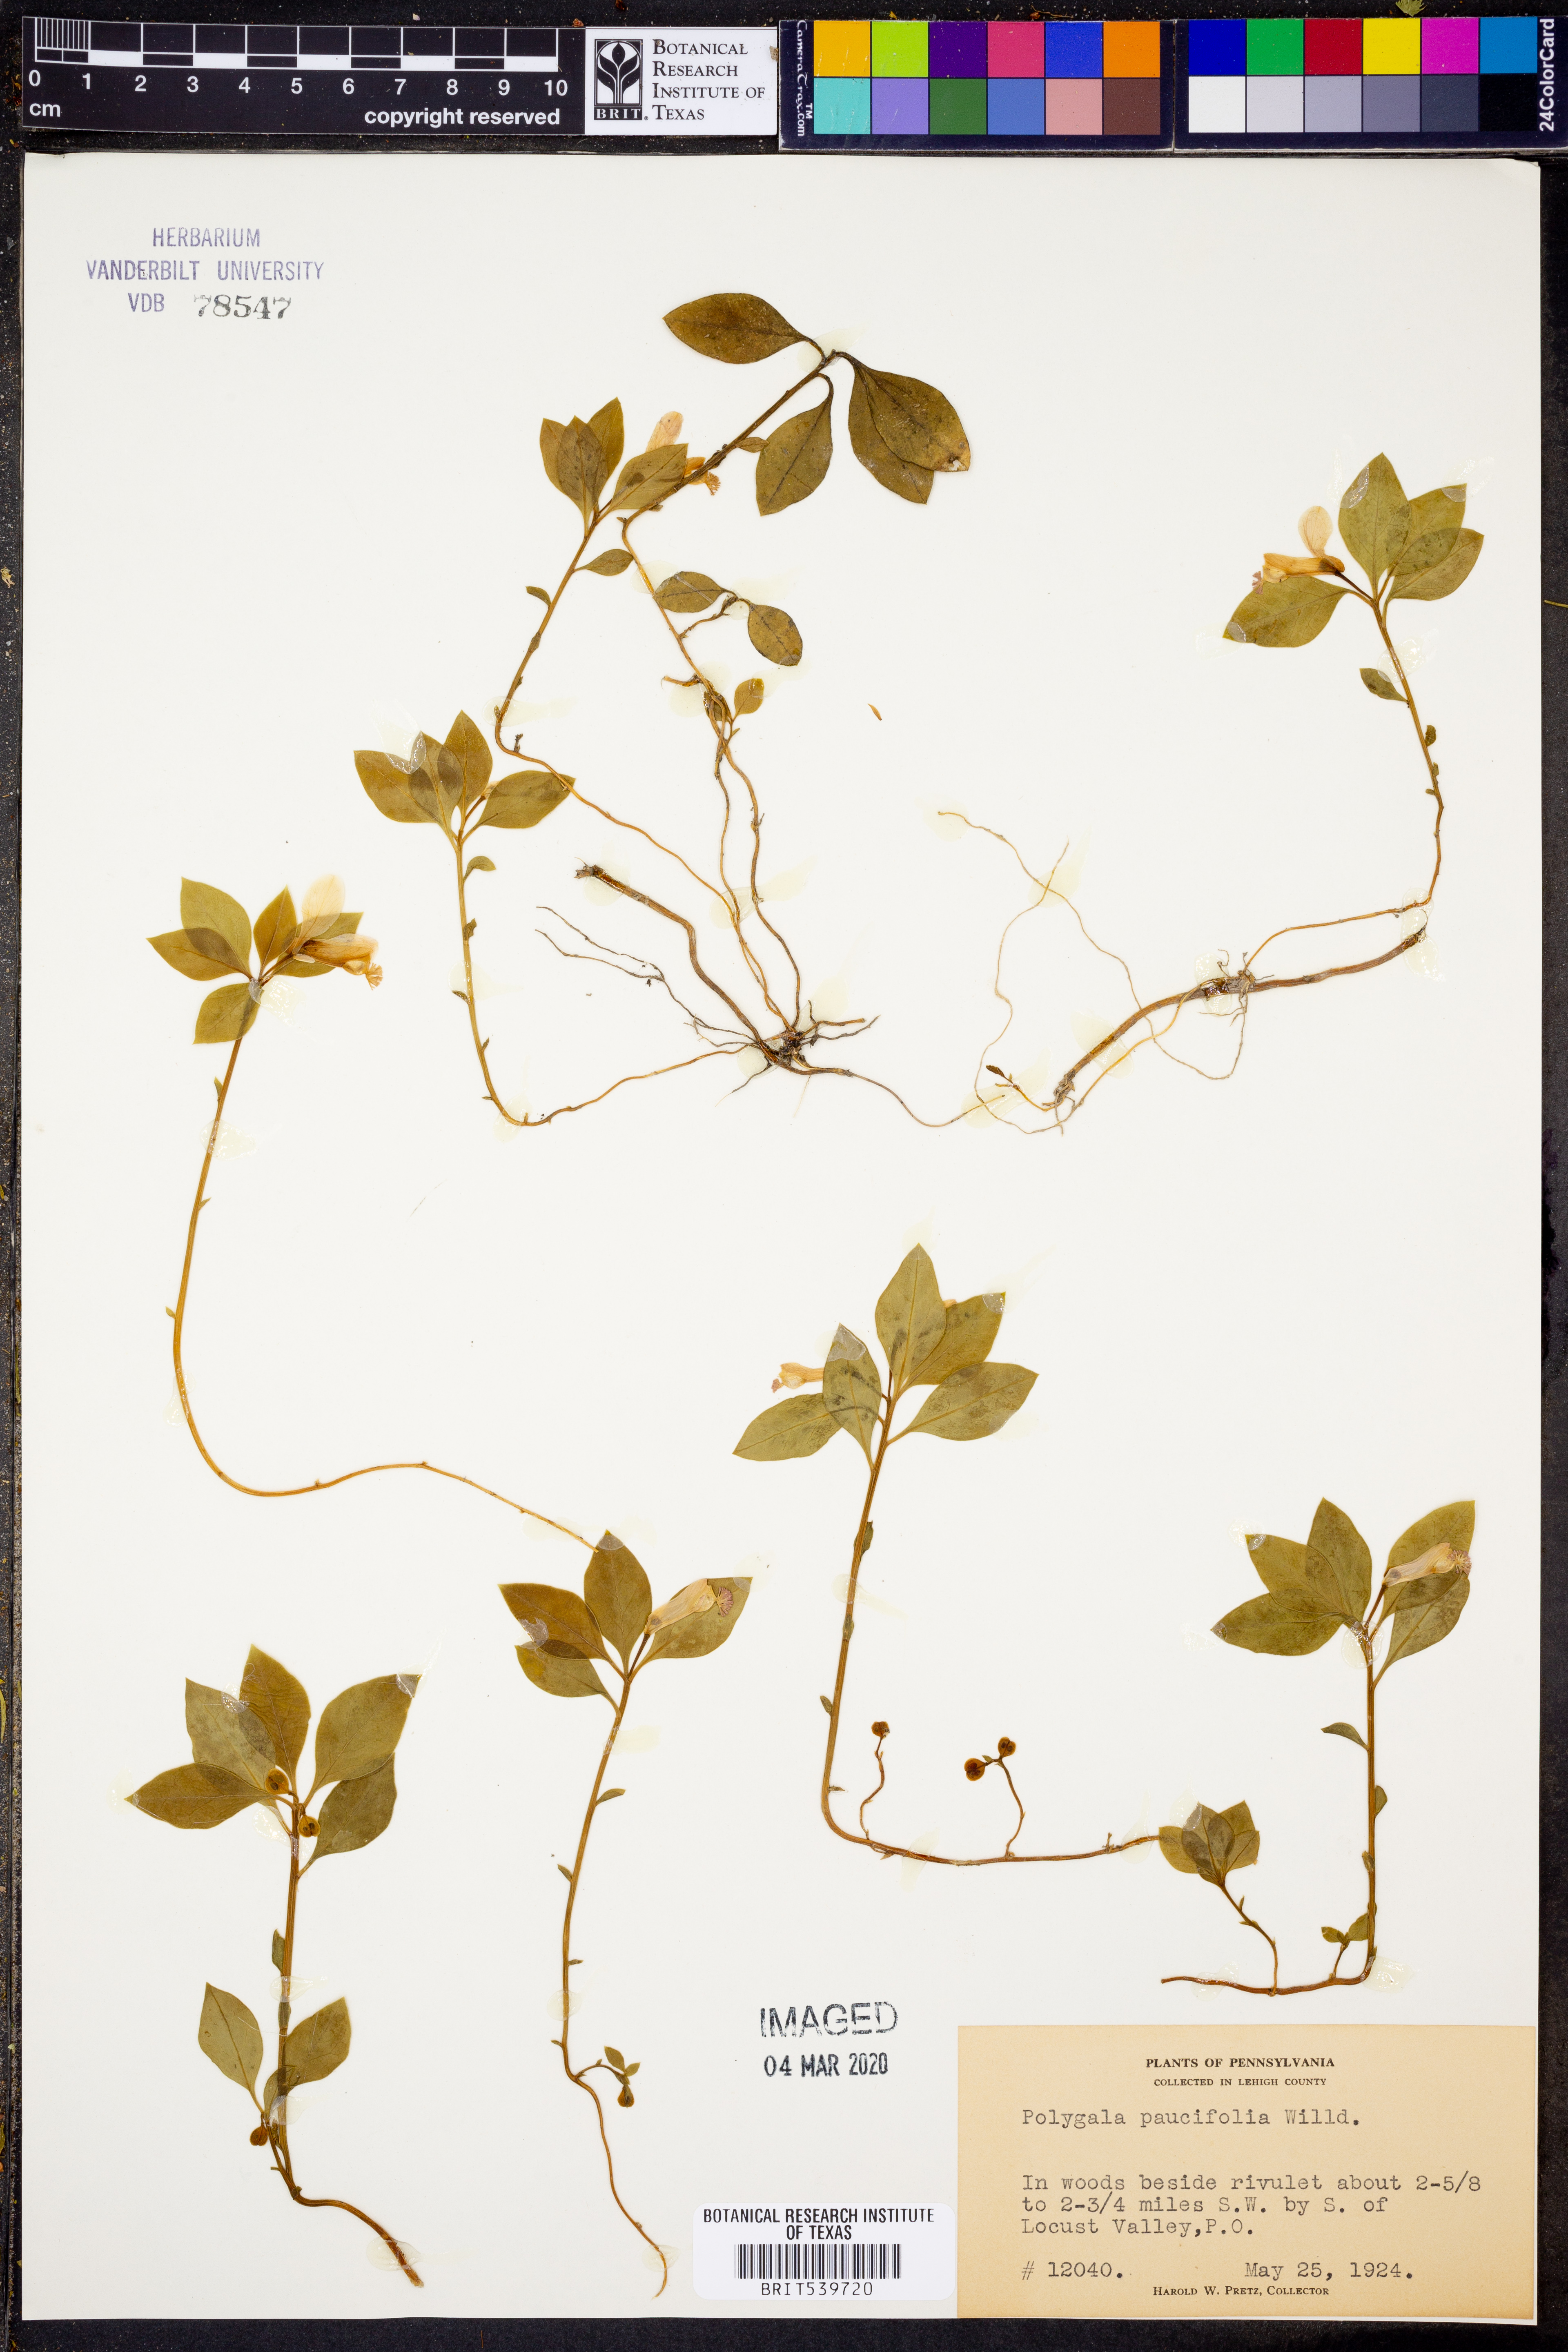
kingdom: Plantae
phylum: Tracheophyta
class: Magnoliopsida
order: Fabales
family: Polygalaceae
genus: Polygaloides
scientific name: Polygaloides paucifolia
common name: Bird-on-the-wing
